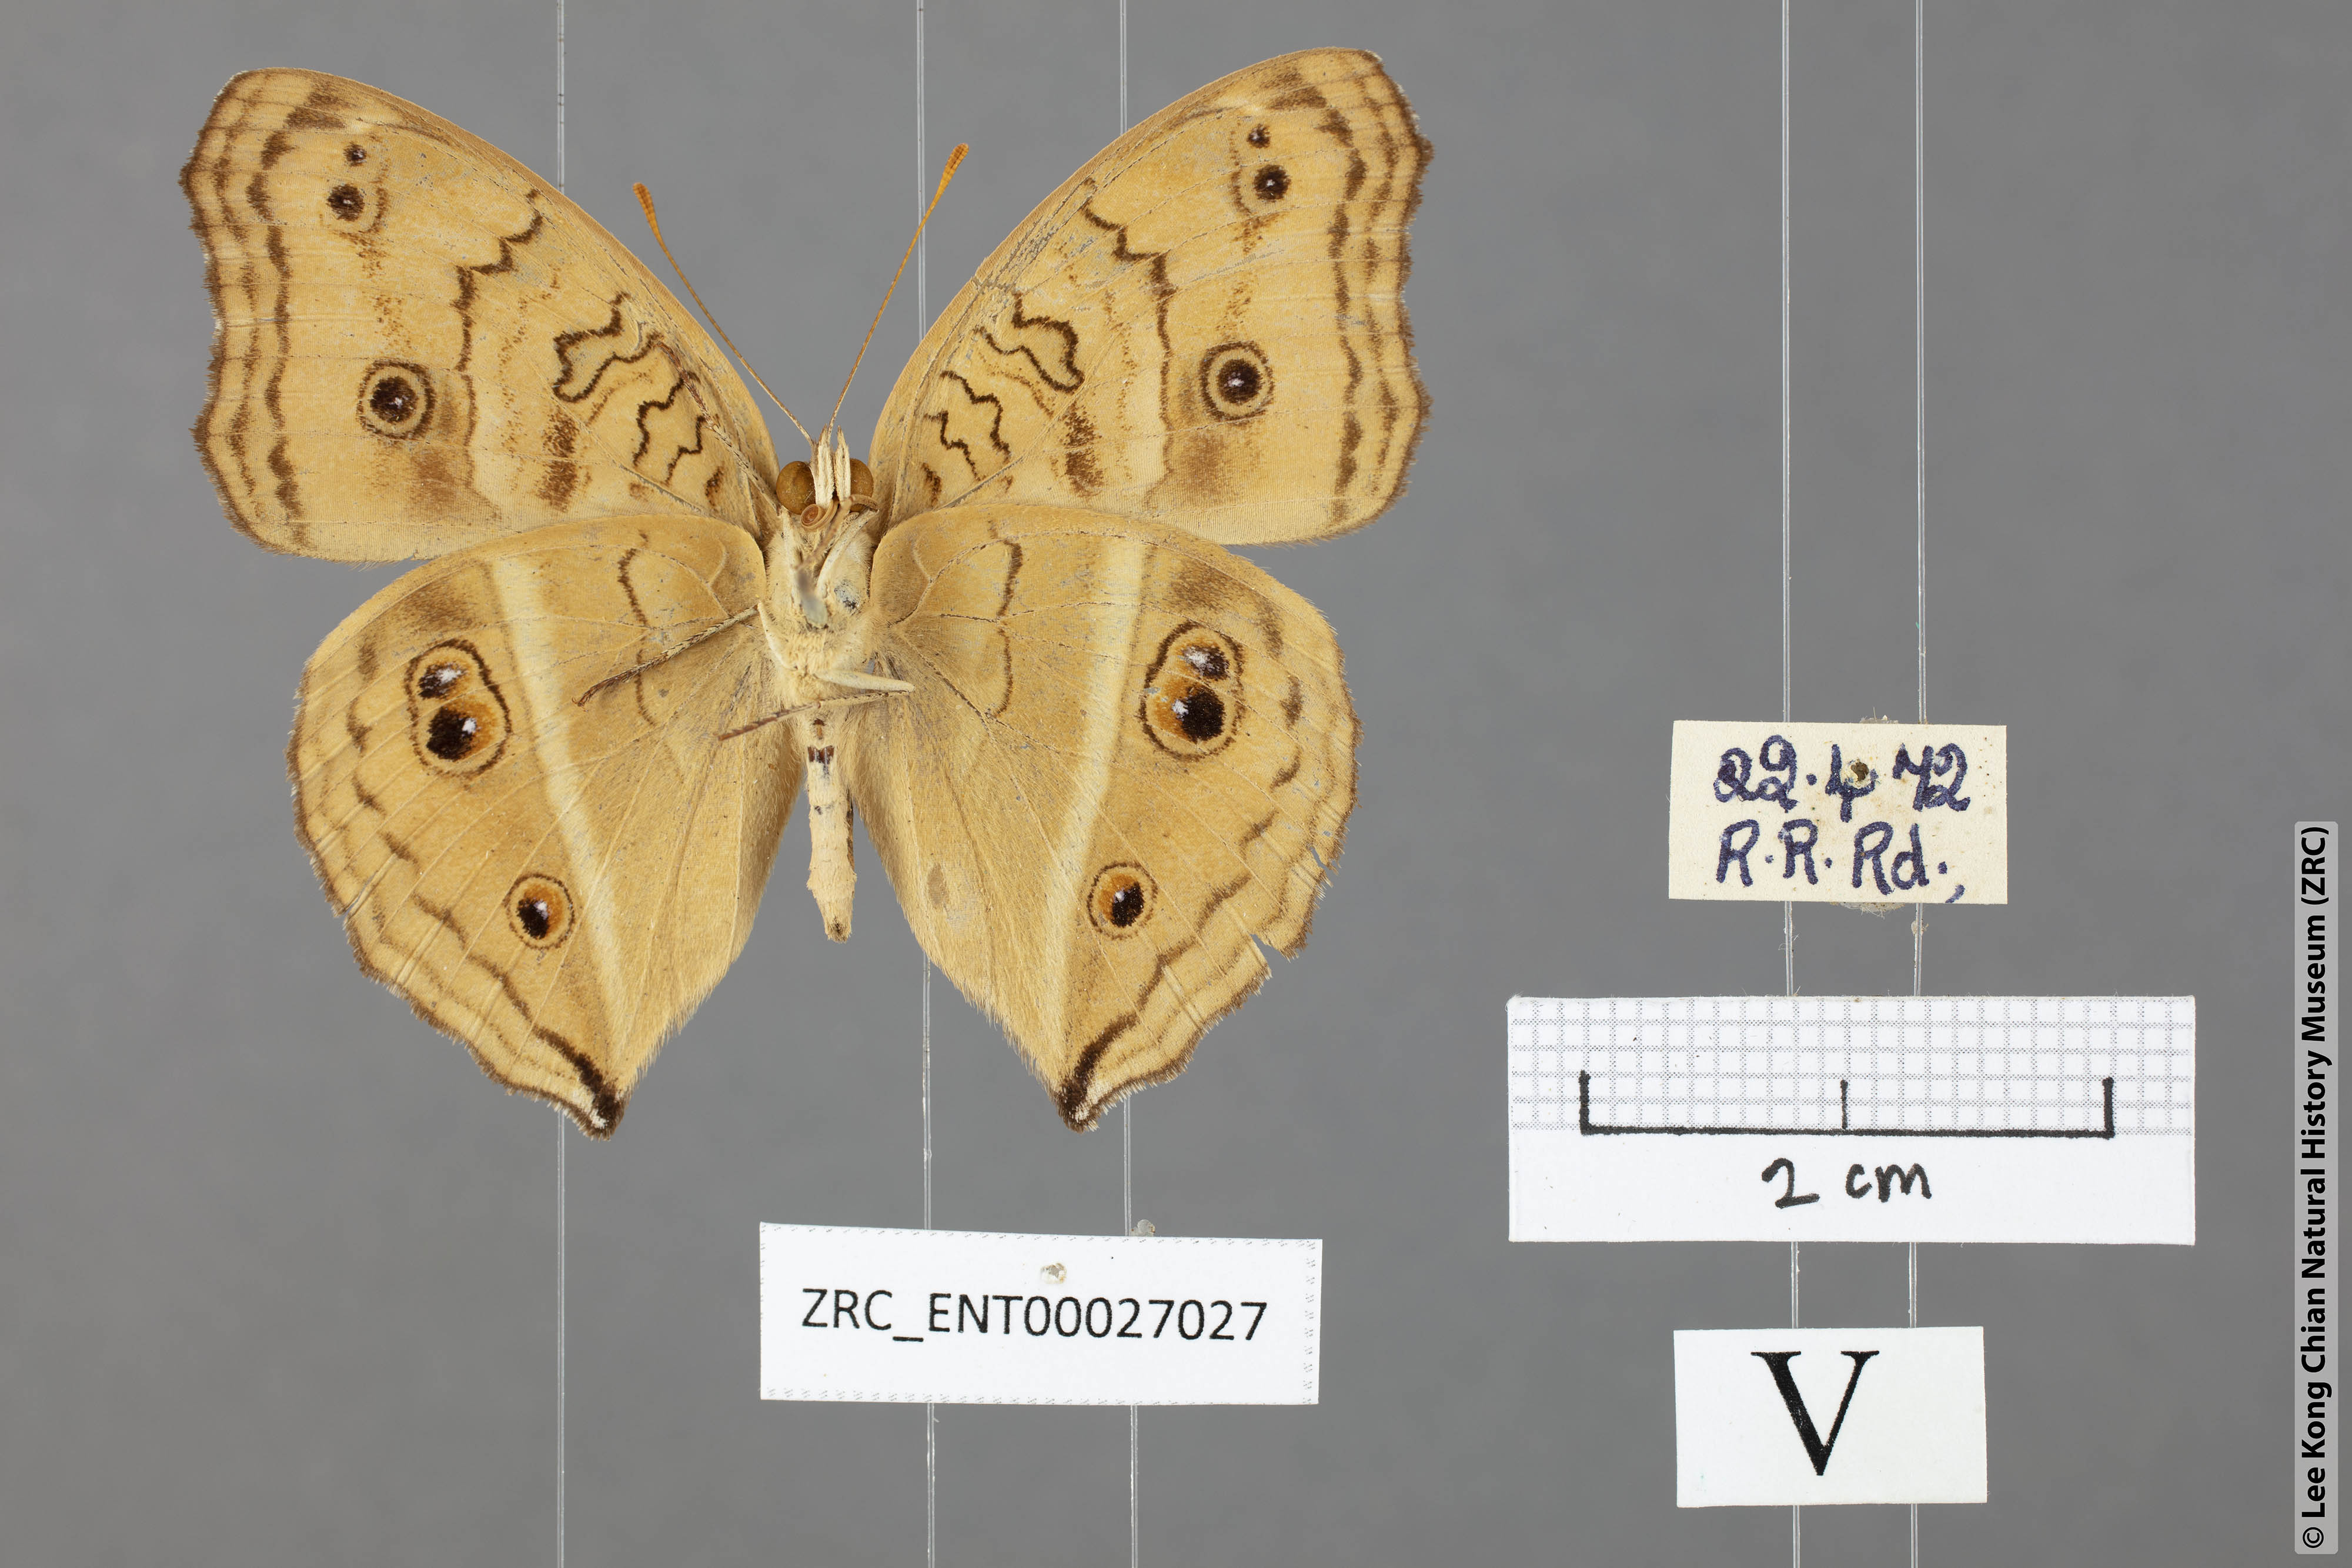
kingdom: Animalia
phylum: Arthropoda
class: Insecta
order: Lepidoptera
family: Nymphalidae
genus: Junonia
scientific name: Junonia almana
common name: Peacock pansy
